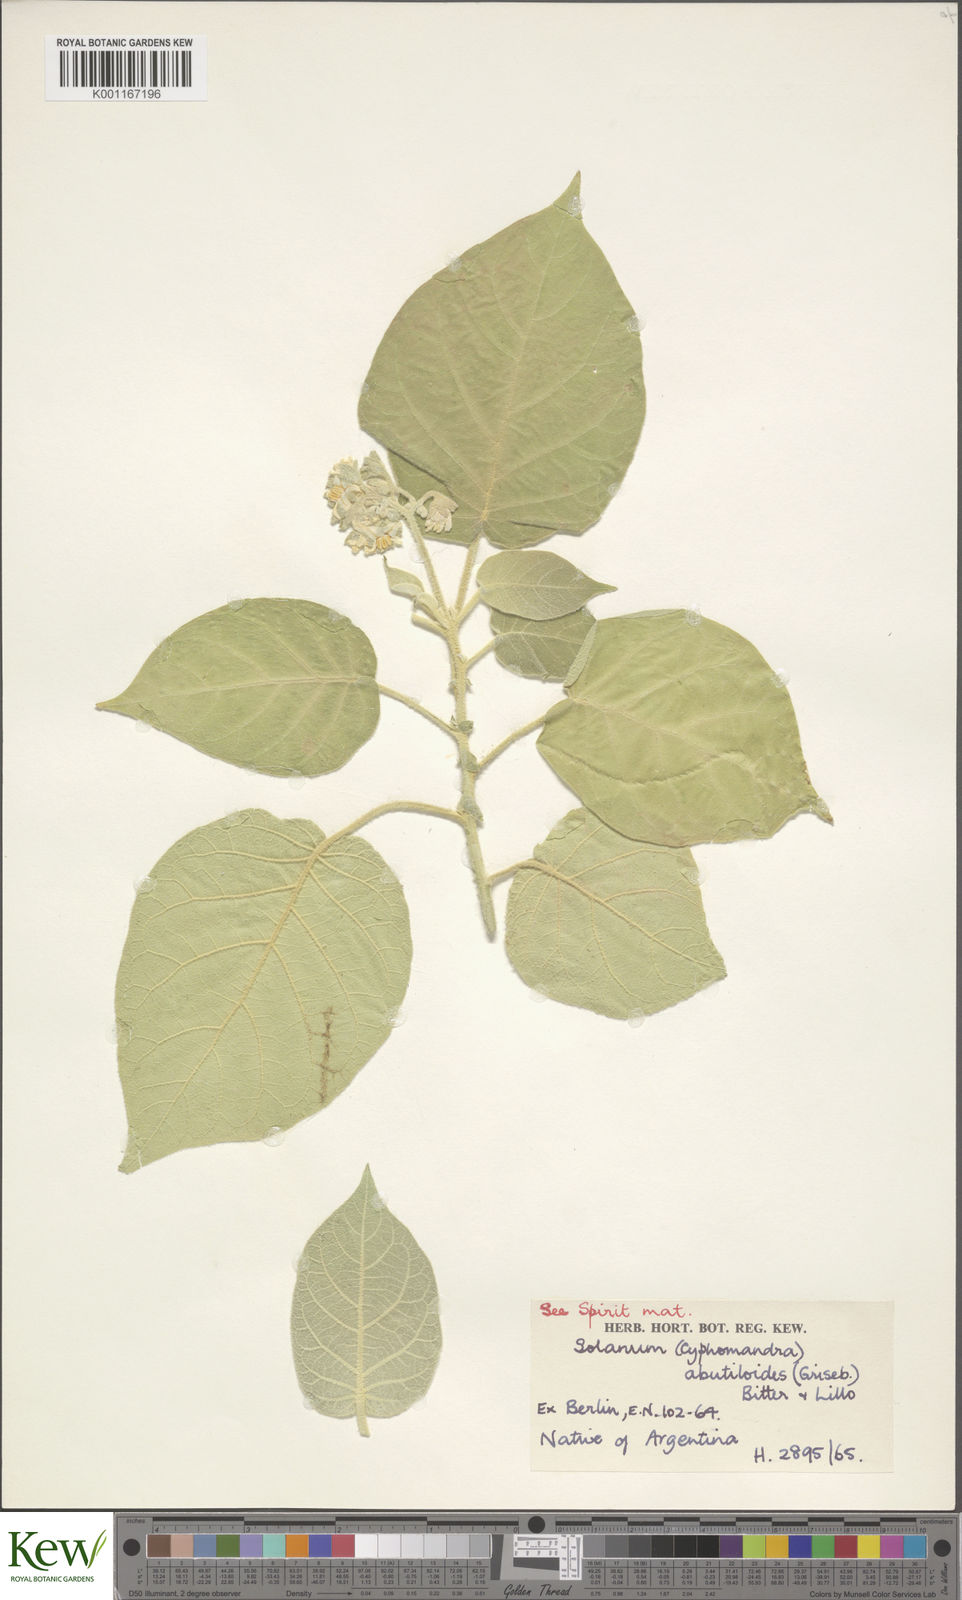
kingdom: Plantae
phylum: Tracheophyta
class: Magnoliopsida
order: Solanales
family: Solanaceae
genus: Solanum
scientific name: Solanum abutiloides
